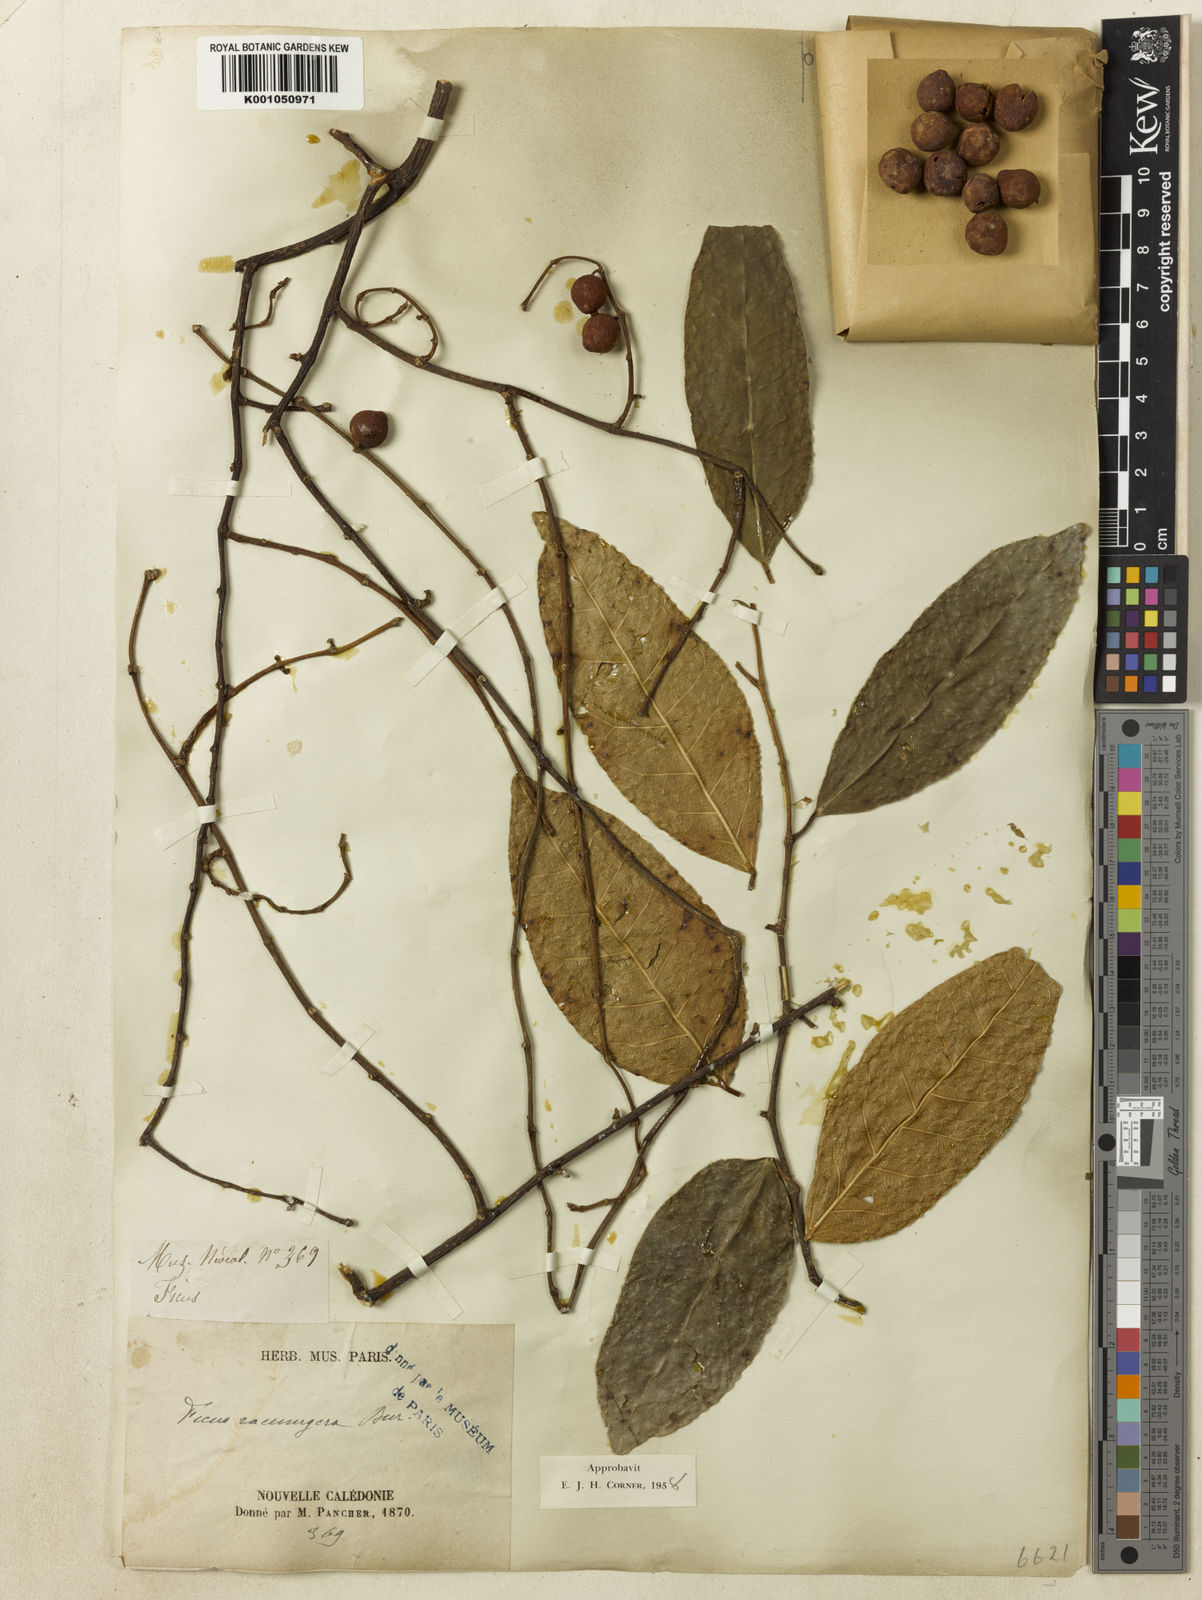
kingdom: Plantae
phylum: Tracheophyta
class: Magnoliopsida
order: Rosales
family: Moraceae
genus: Ficus
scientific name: Ficus racemigera
